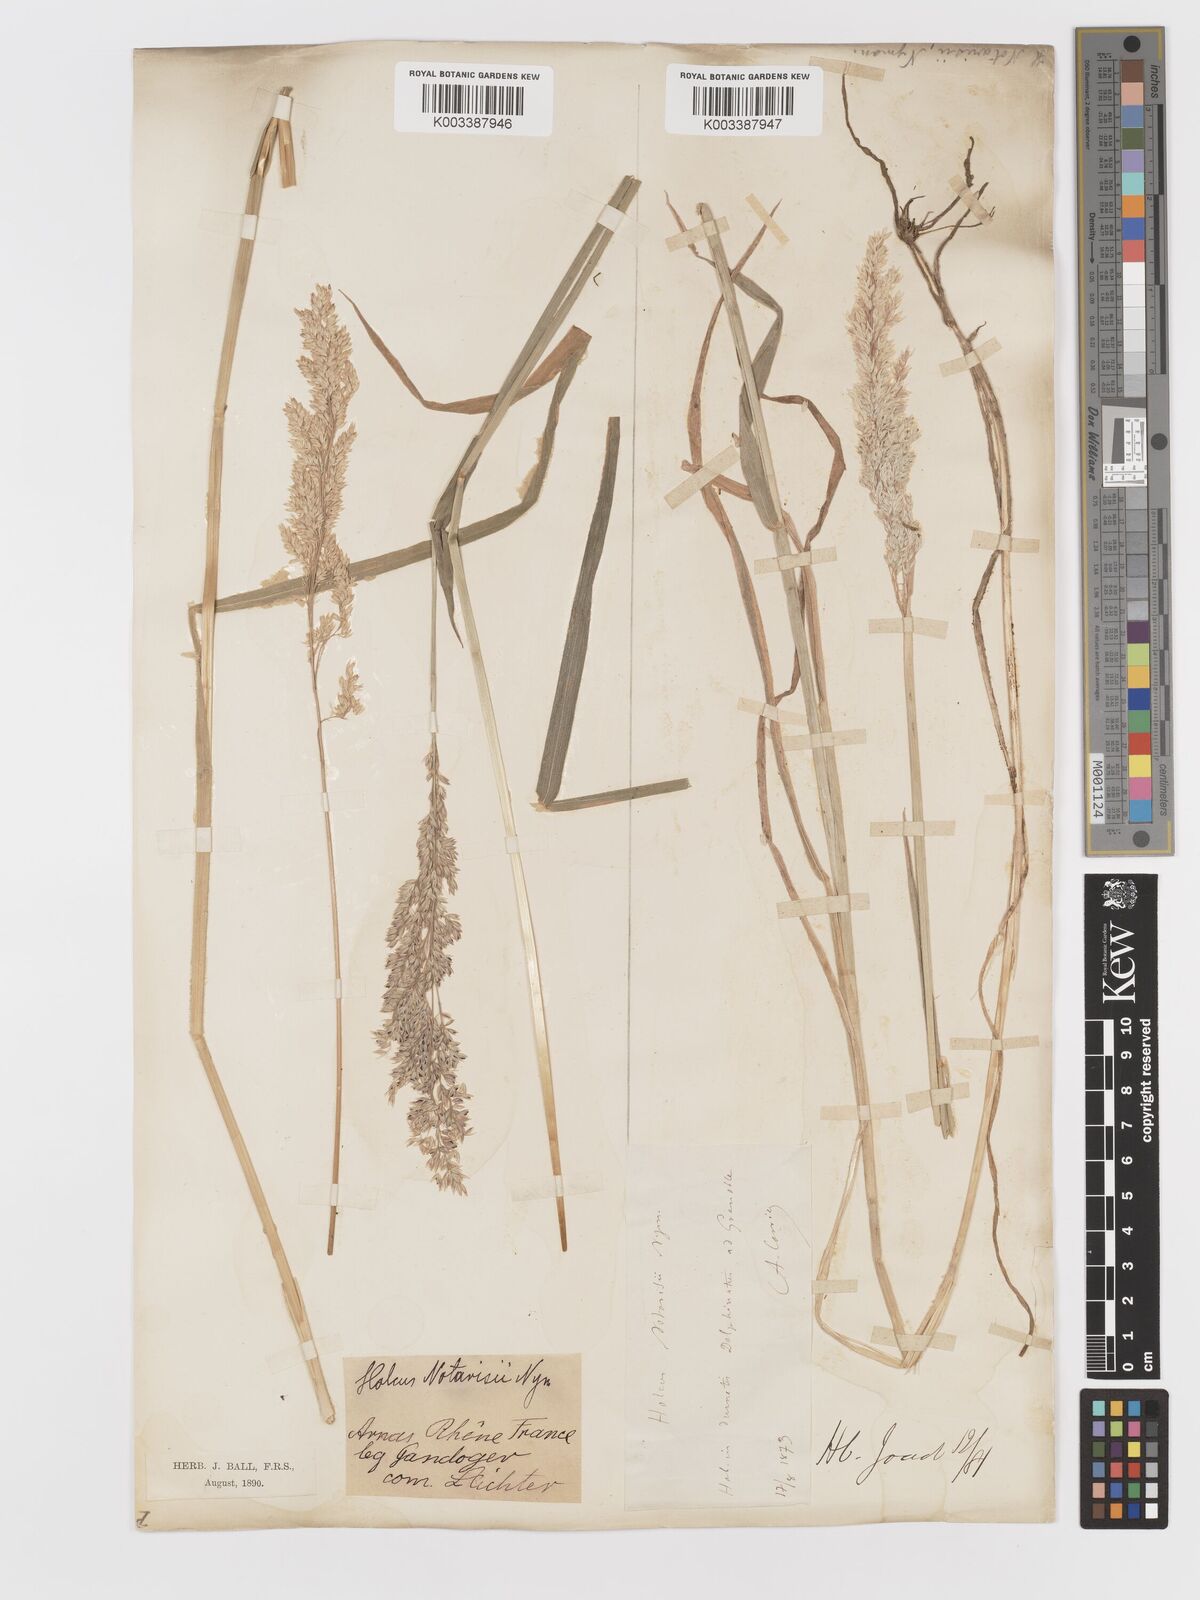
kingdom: Plantae
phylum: Tracheophyta
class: Liliopsida
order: Poales
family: Poaceae
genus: Holcus
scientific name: Holcus lanatus
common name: Yorkshire-fog
